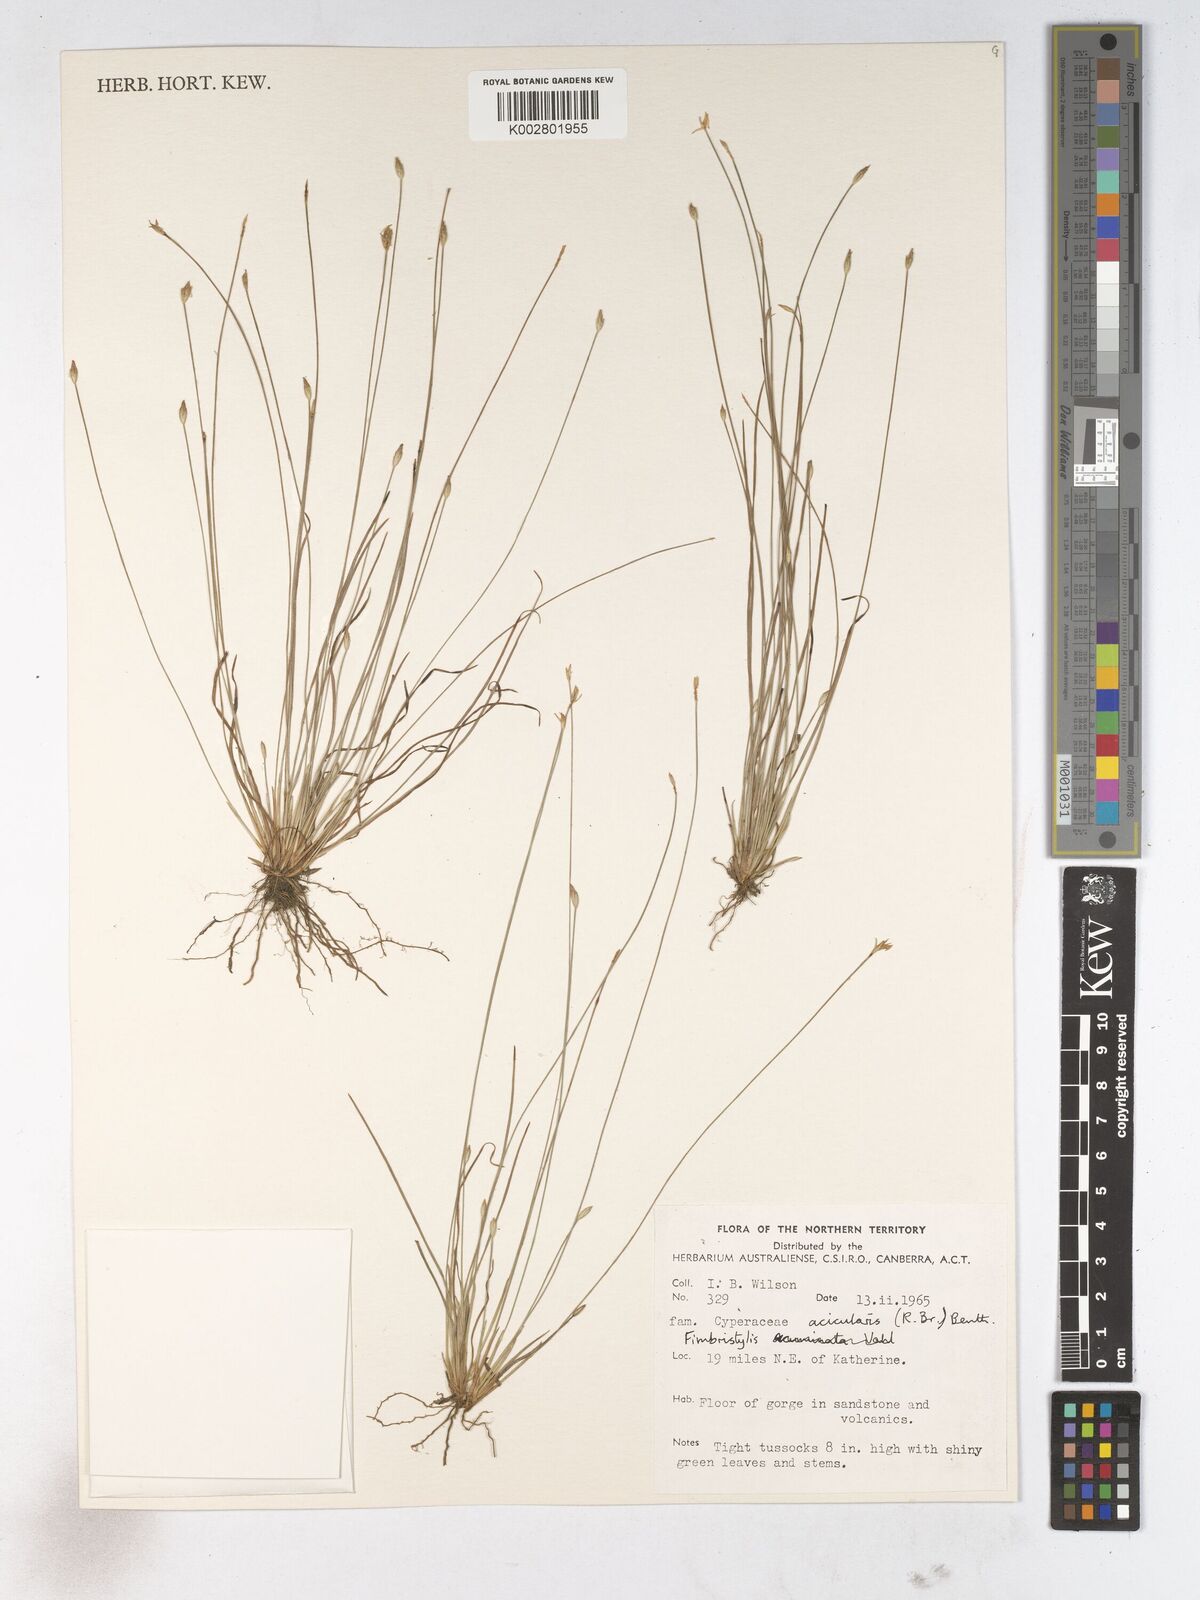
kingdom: Plantae
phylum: Tracheophyta
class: Liliopsida
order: Poales
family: Cyperaceae
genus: Fimbristylis
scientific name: Fimbristylis acicularis
